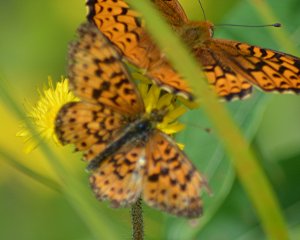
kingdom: Animalia
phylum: Arthropoda
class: Insecta
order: Lepidoptera
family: Nymphalidae
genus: Boloria
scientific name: Boloria selene
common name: Silver-bordered Fritillary
